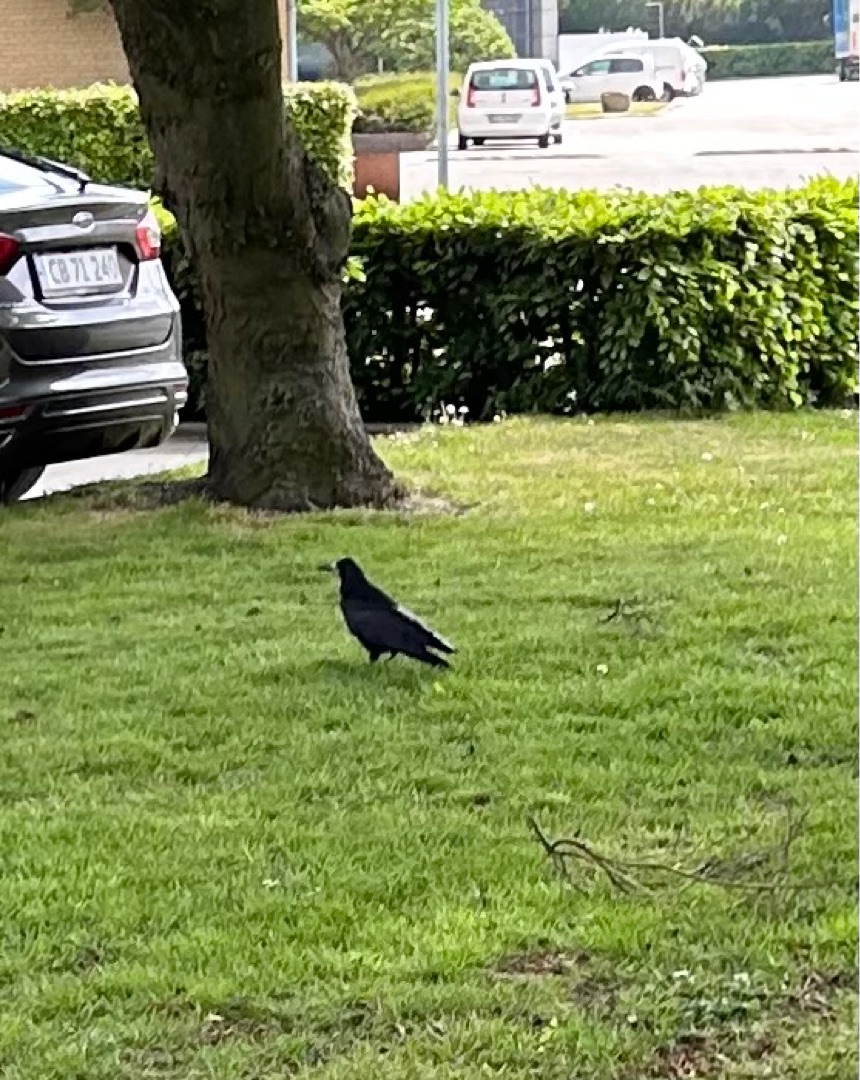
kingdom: Animalia
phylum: Chordata
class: Aves
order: Passeriformes
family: Corvidae
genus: Corvus
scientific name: Corvus frugilegus
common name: Råge
